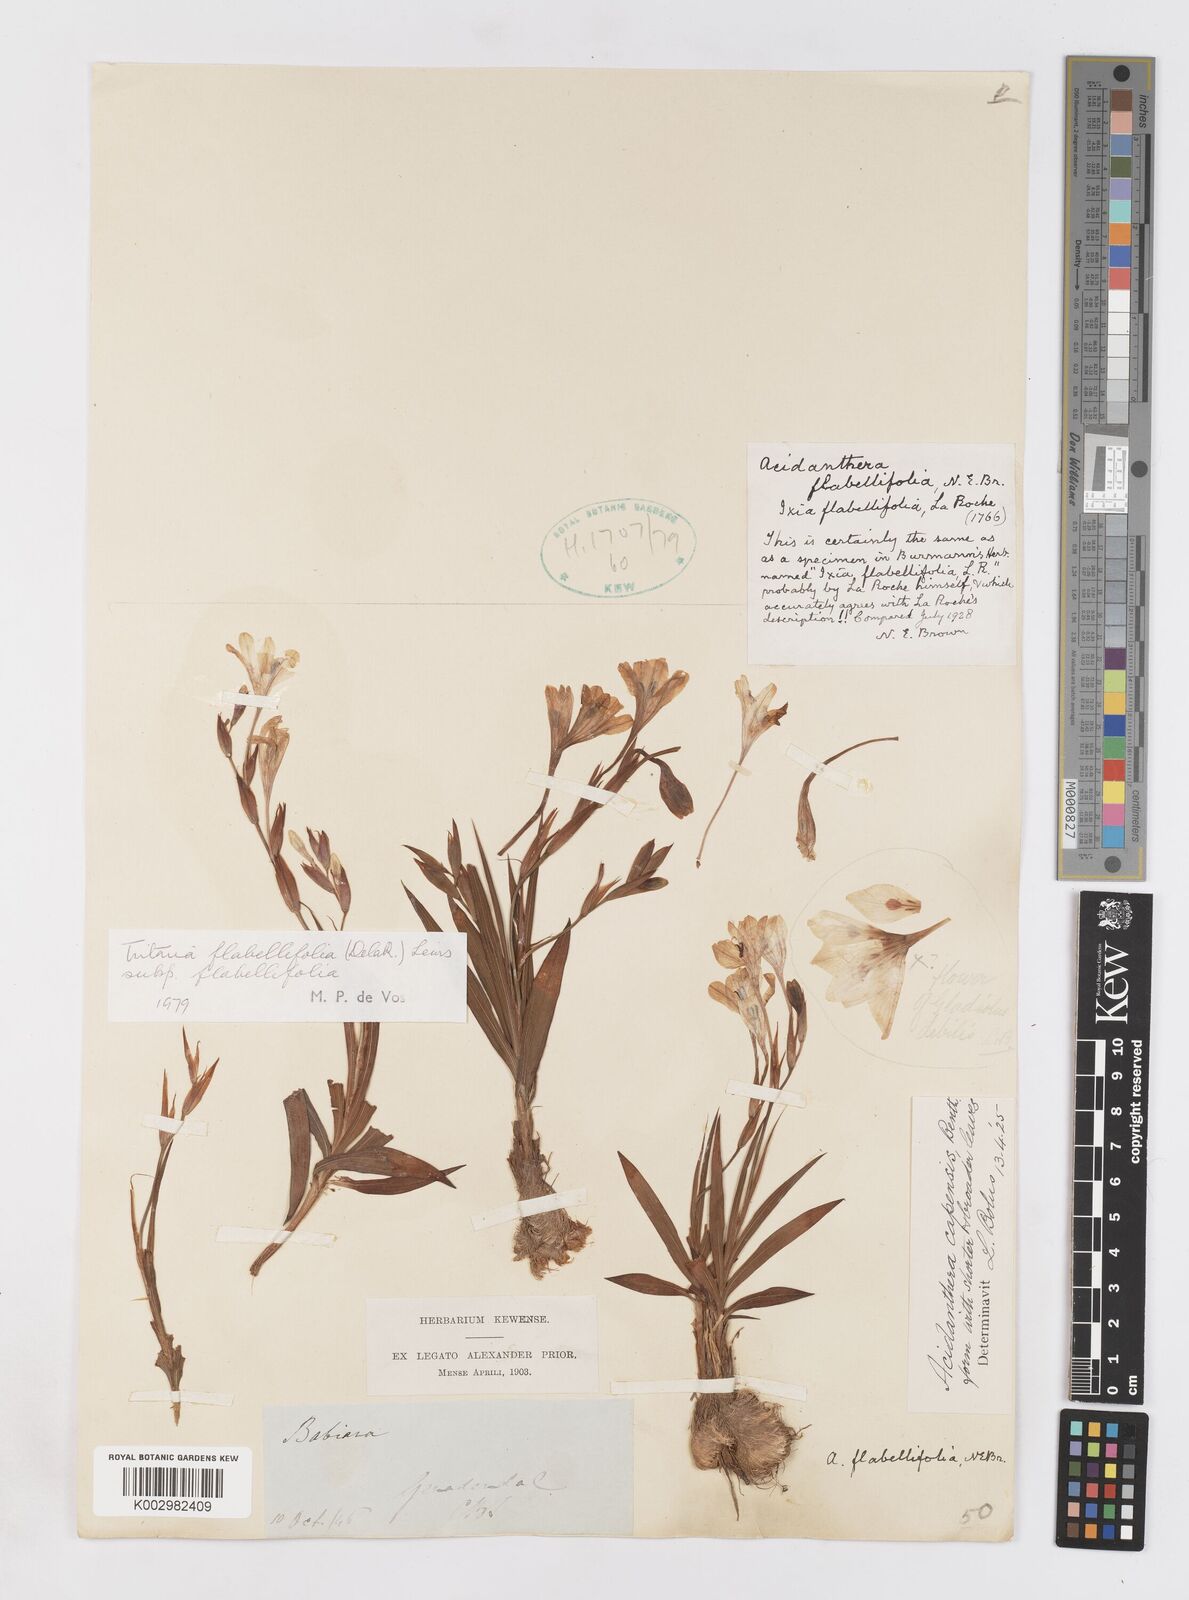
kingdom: Plantae
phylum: Tracheophyta
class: Liliopsida
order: Asparagales
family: Iridaceae
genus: Tritonia
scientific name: Tritonia flabellifolia
